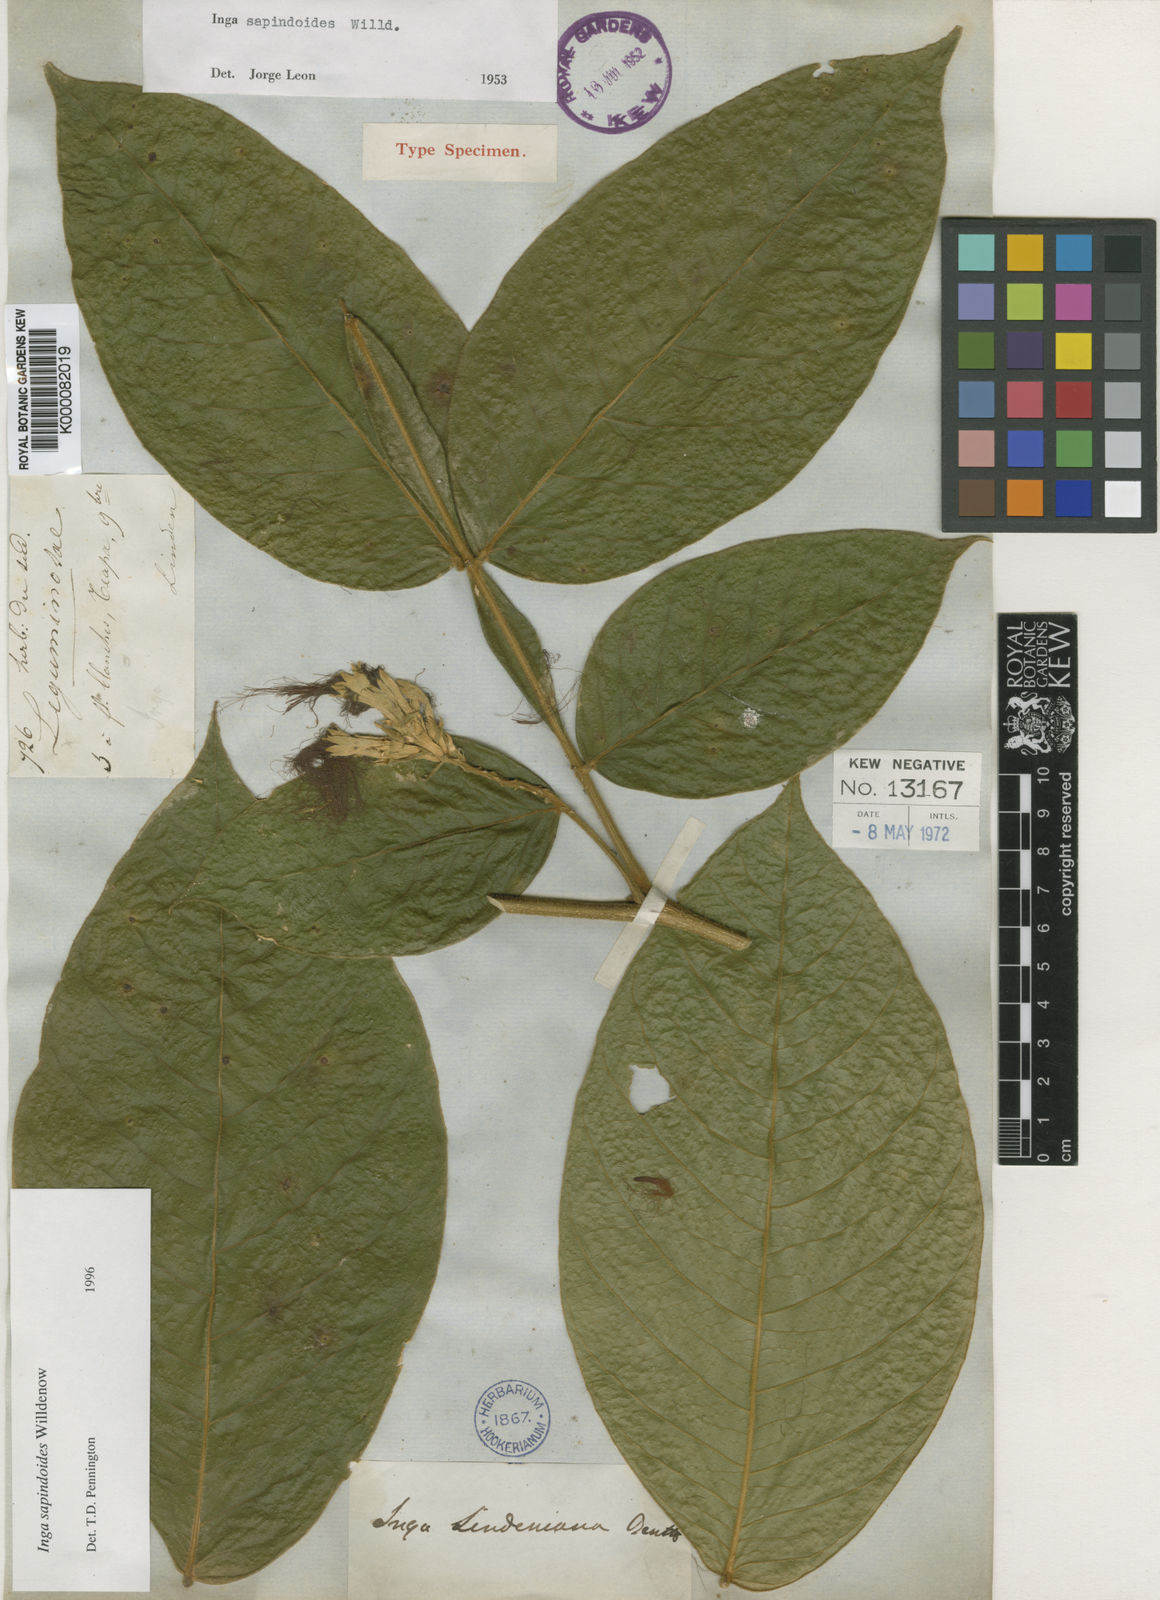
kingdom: Plantae
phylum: Tracheophyta
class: Magnoliopsida
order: Fabales
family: Fabaceae
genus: Inga
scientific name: Inga
